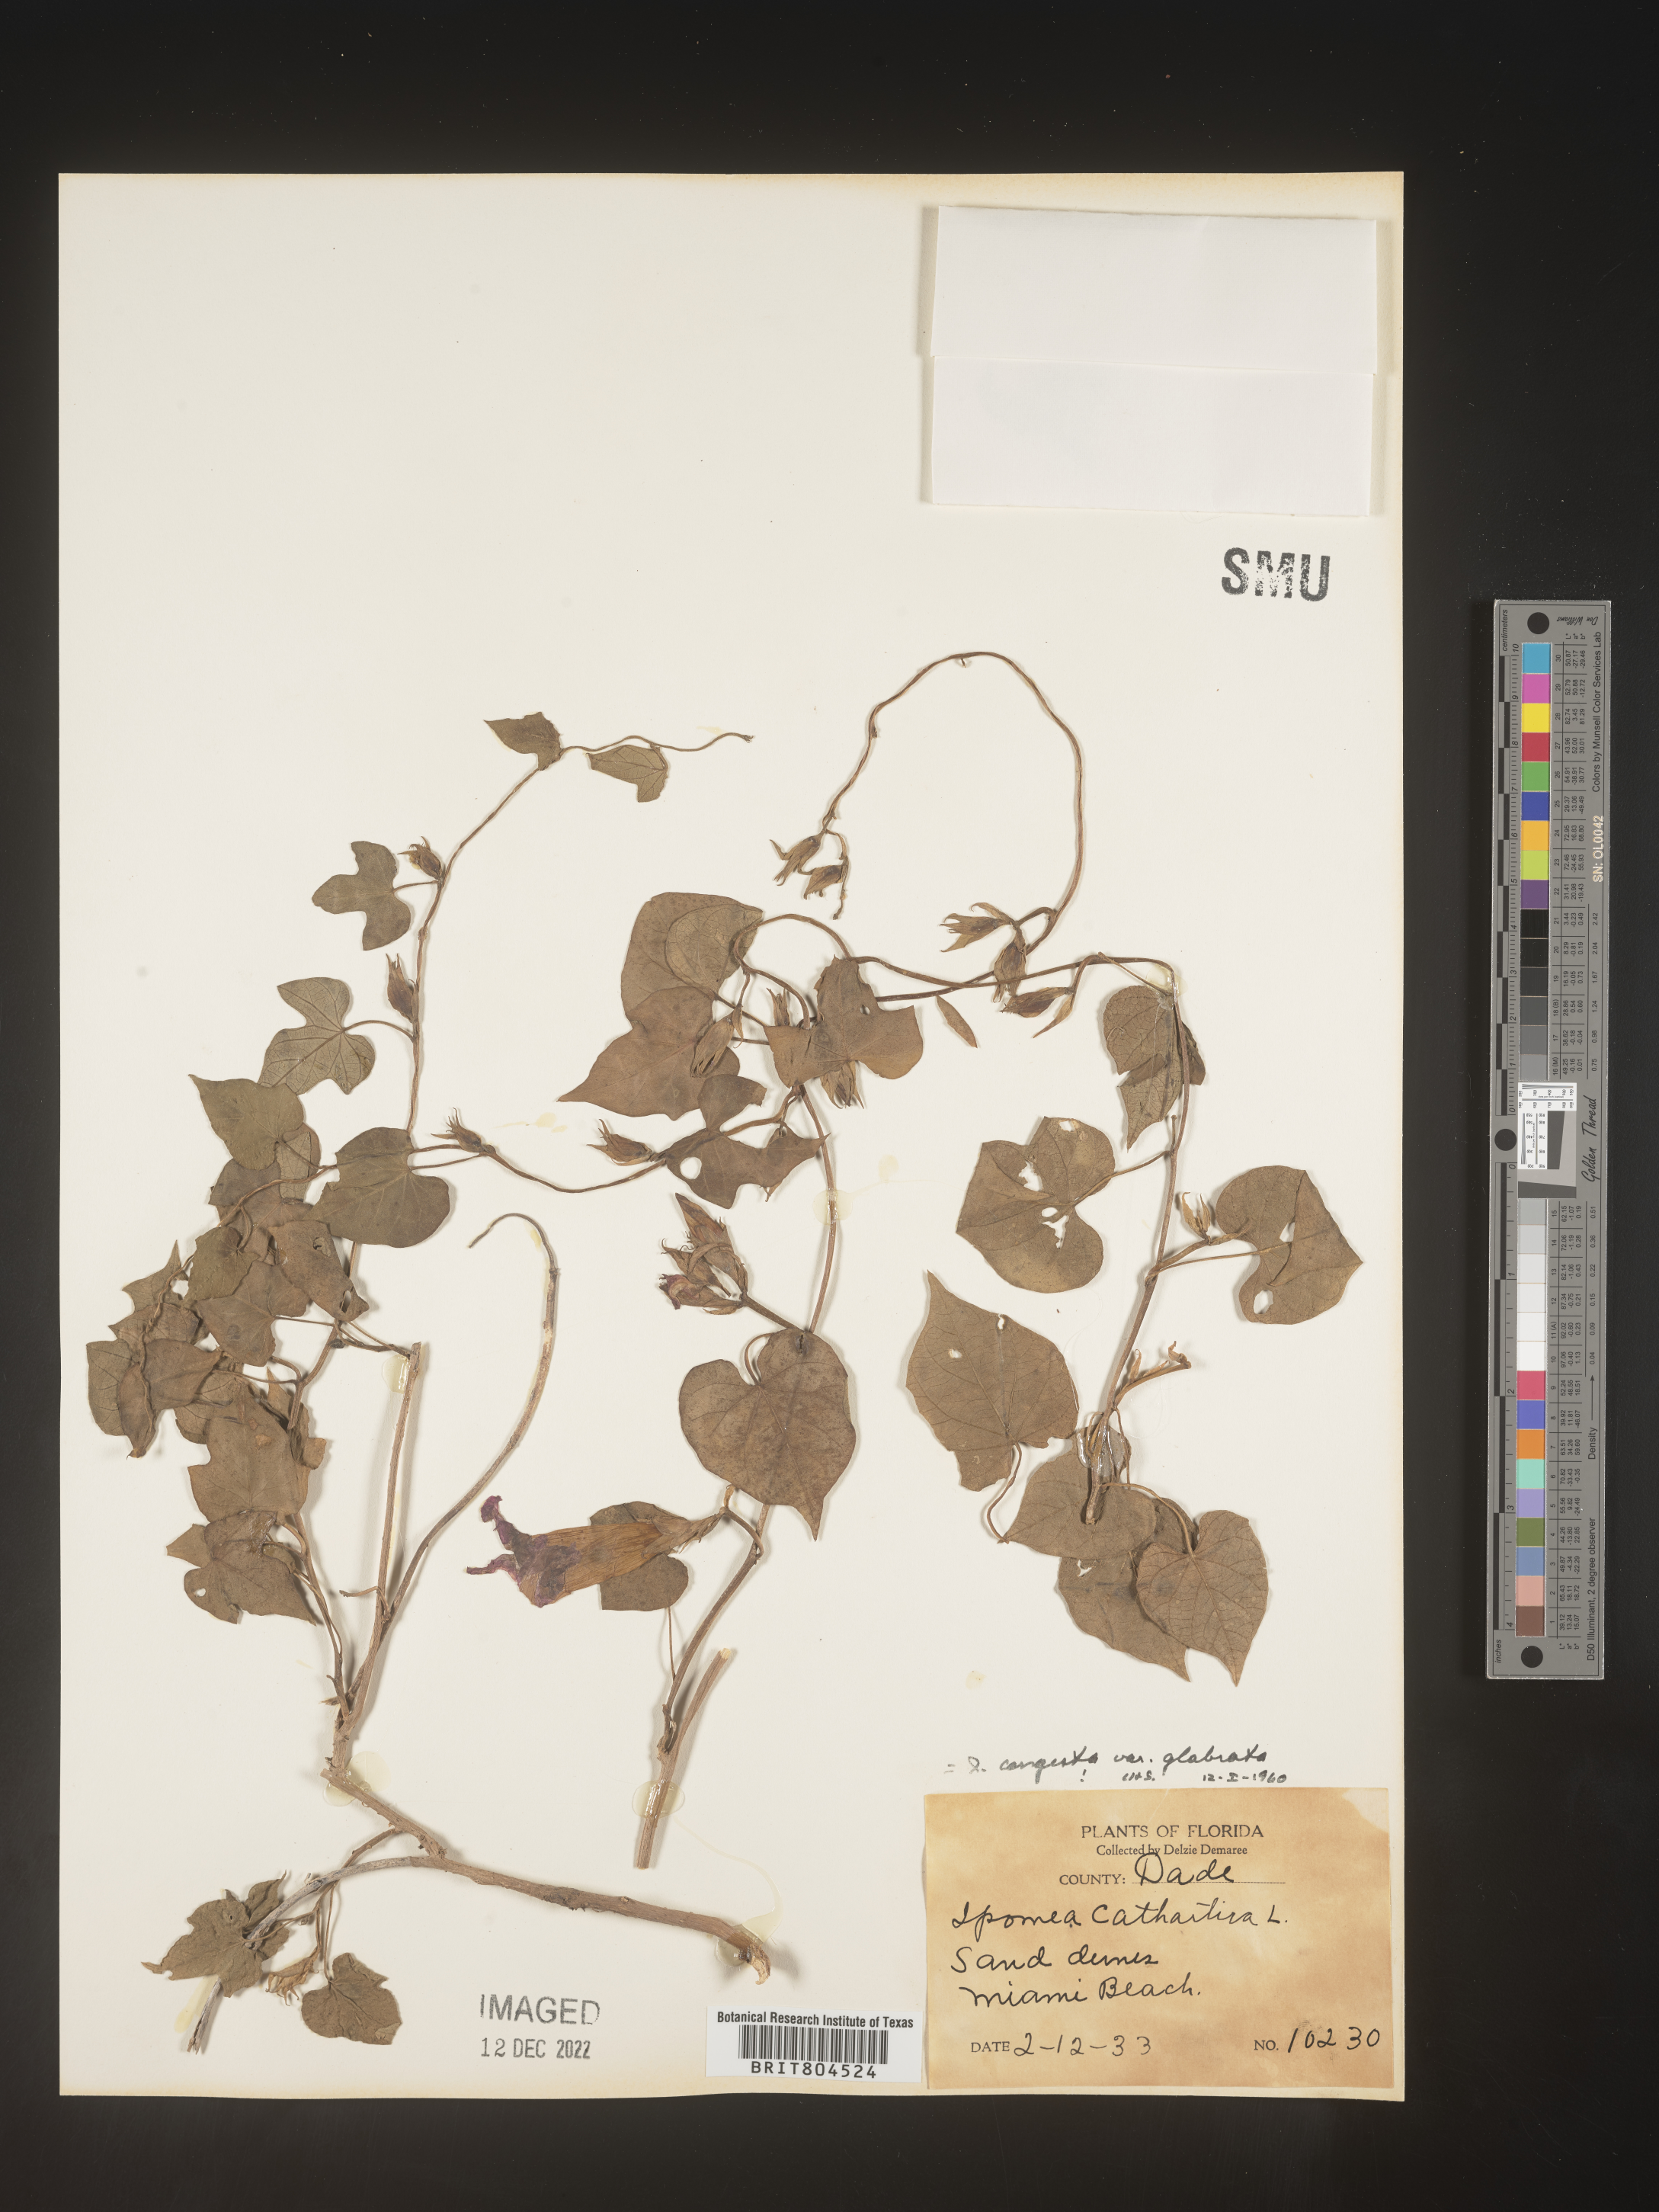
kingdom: Plantae
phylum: Tracheophyta
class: Magnoliopsida
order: Solanales
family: Convolvulaceae
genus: Ipomoea
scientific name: Ipomoea coccinea
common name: Red morning-glory
